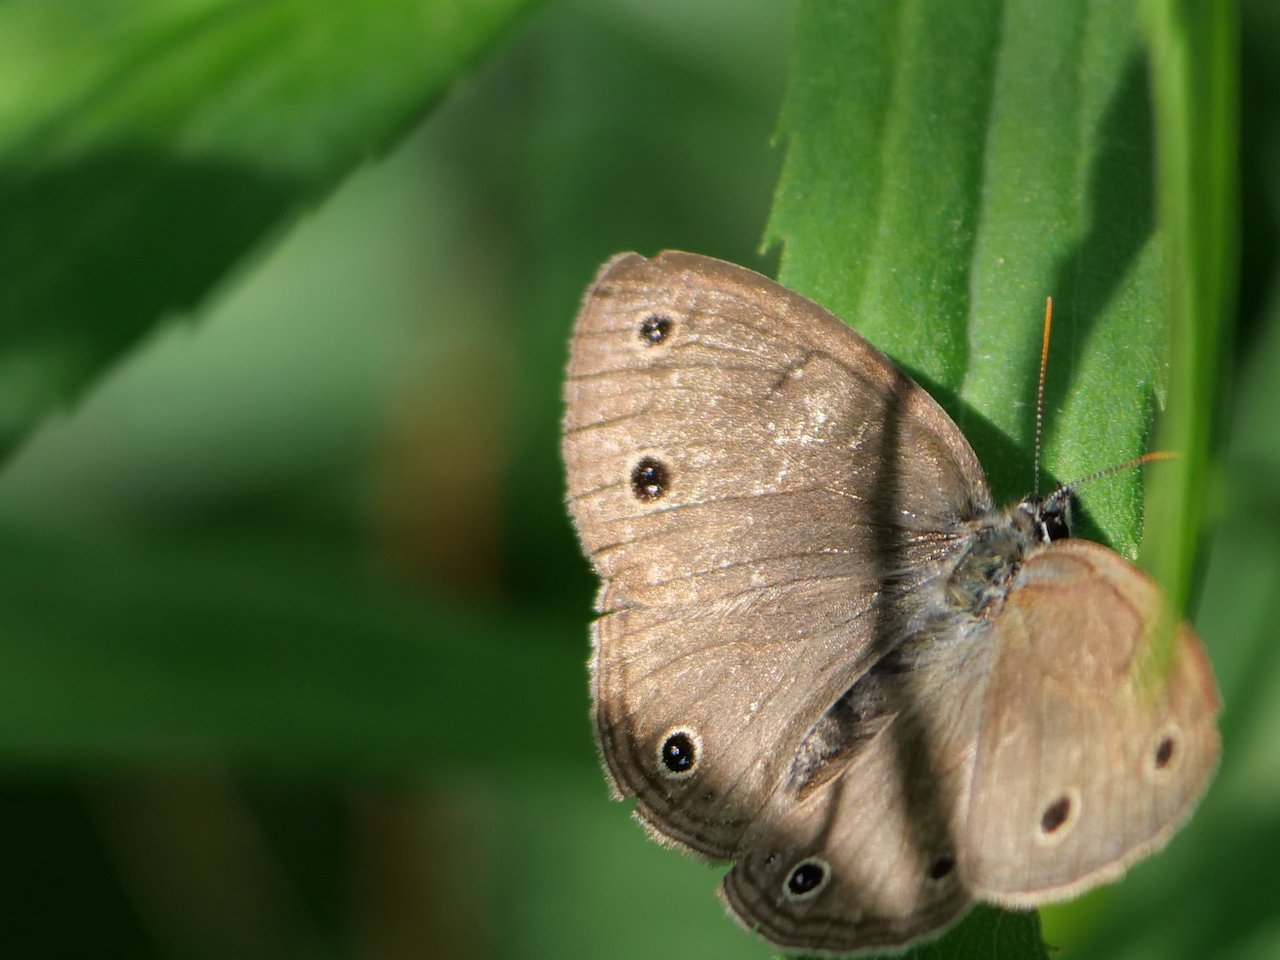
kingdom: Animalia
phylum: Arthropoda
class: Insecta
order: Lepidoptera
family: Nymphalidae
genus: Euptychia
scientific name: Euptychia cymela
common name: Little Wood Satyr
